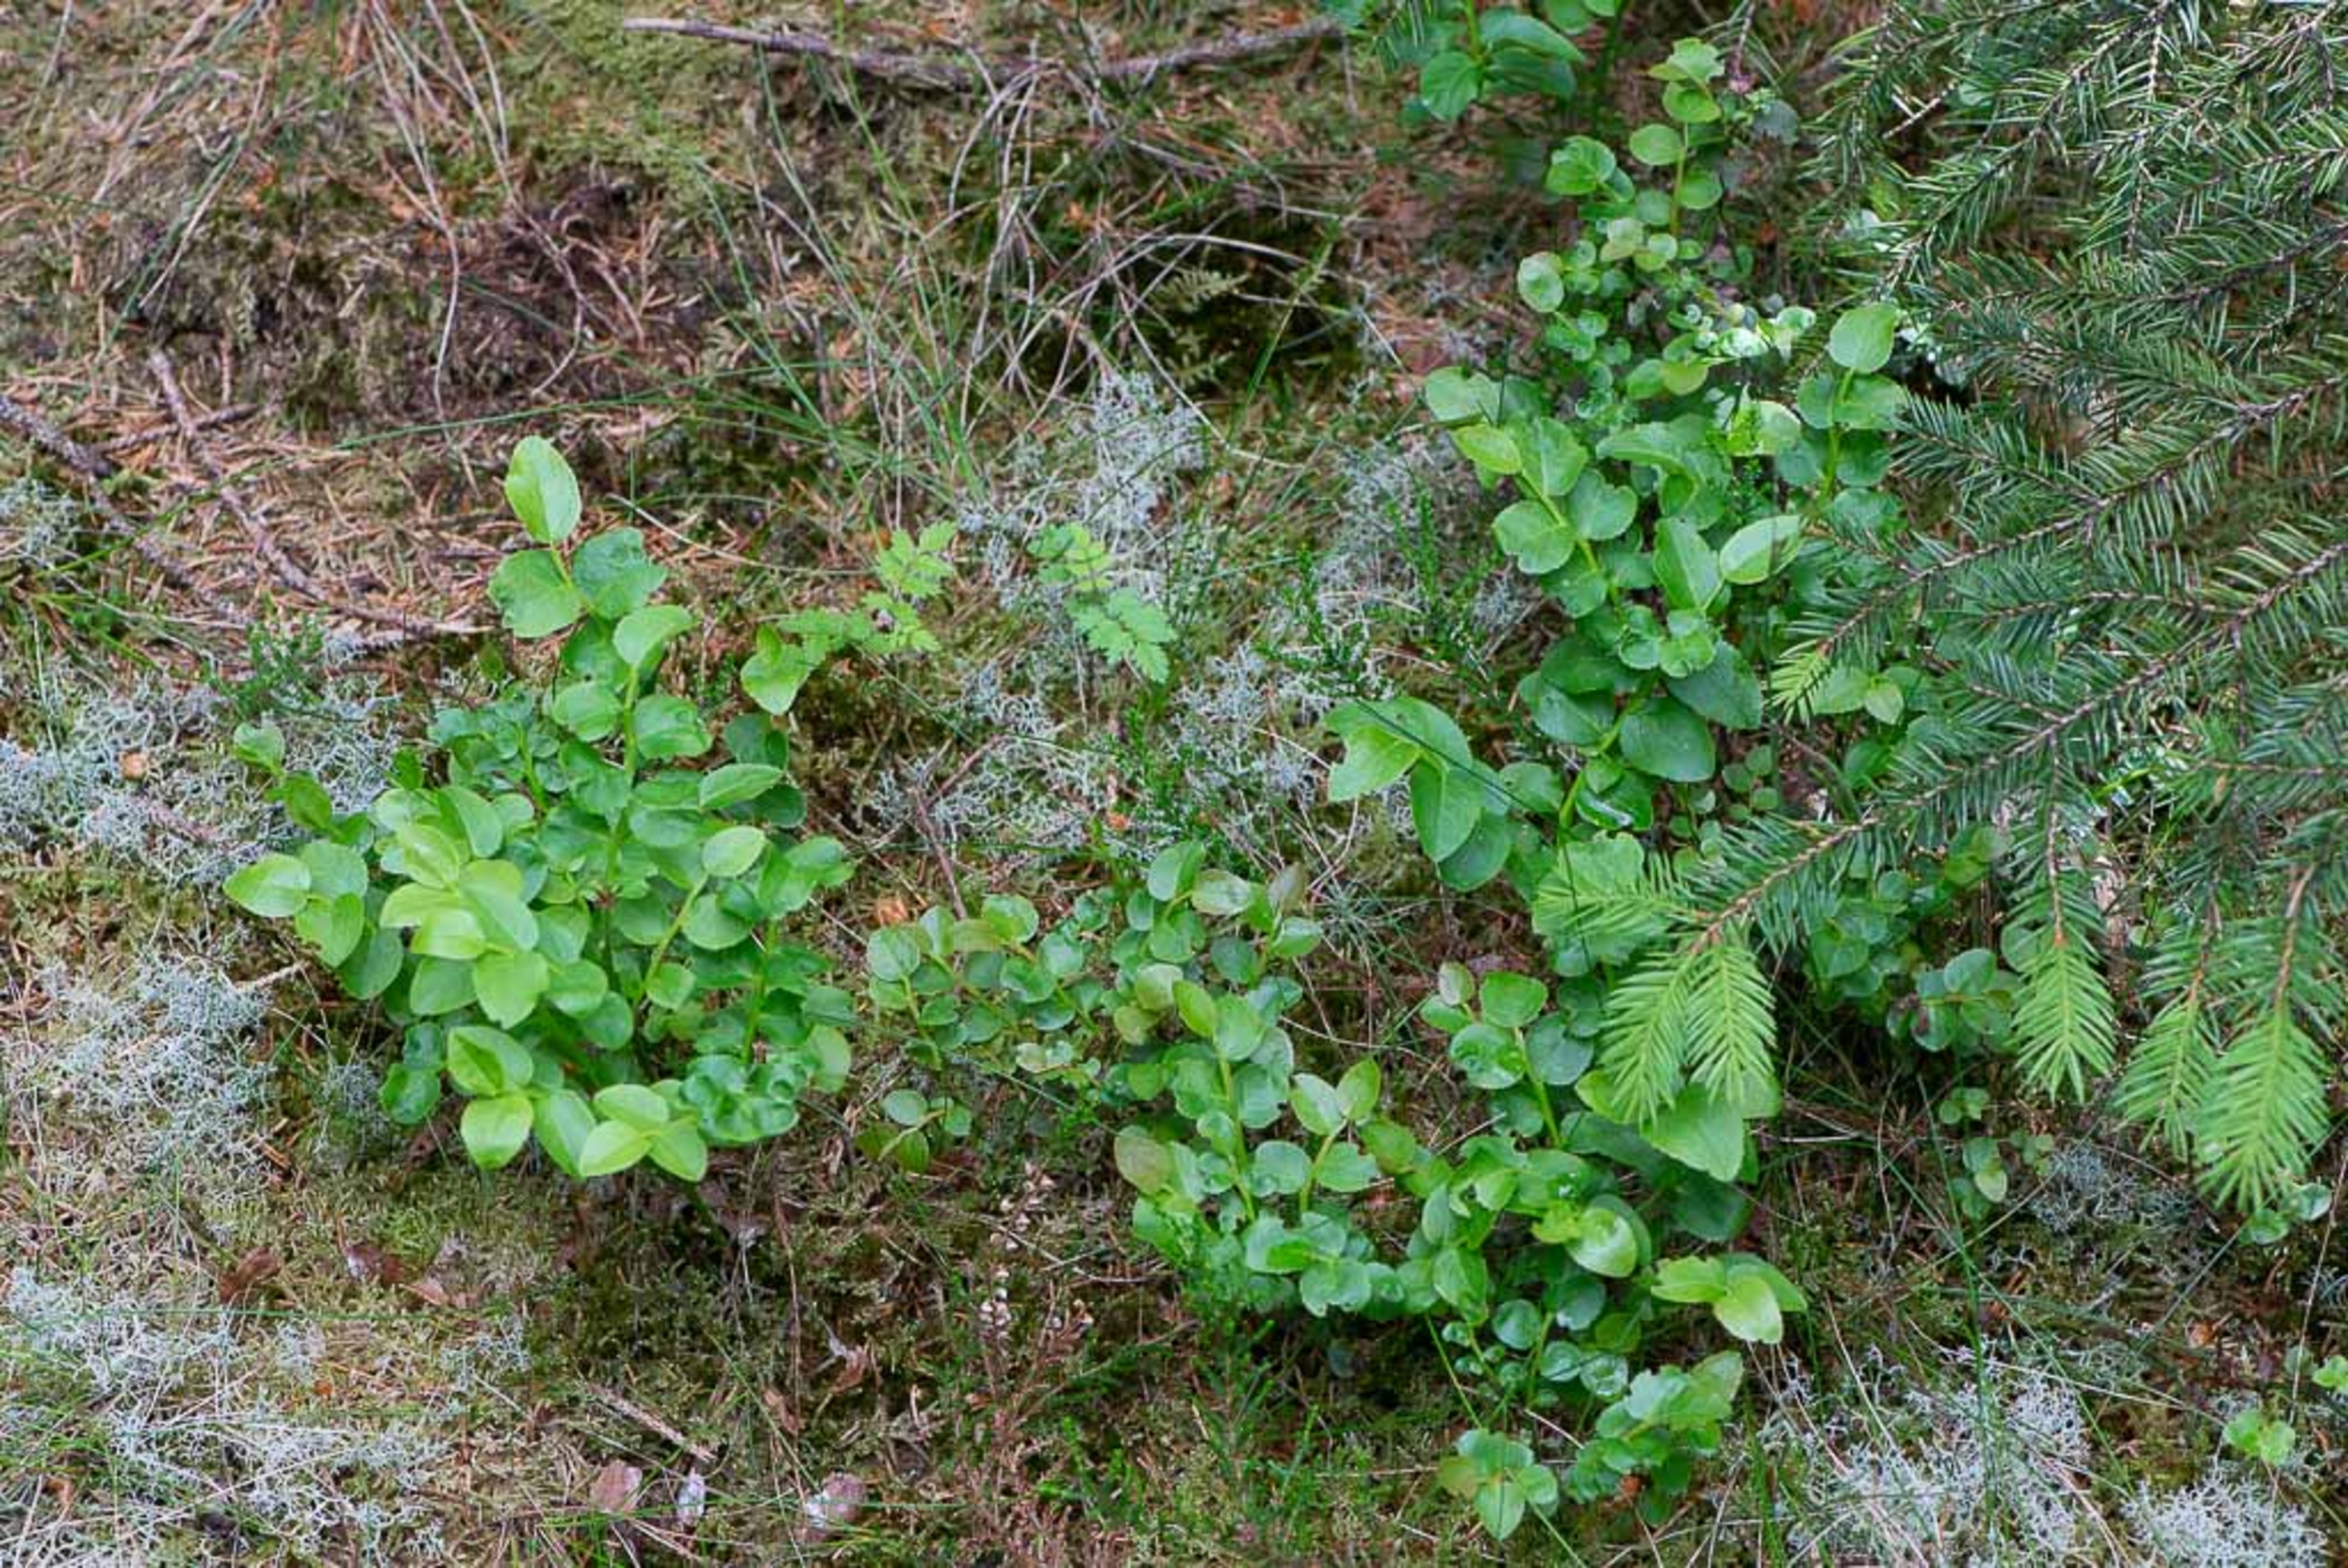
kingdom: Plantae
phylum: Tracheophyta
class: Magnoliopsida
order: Ericales
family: Ericaceae
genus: Vaccinium
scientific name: Vaccinium myrtillus
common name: Blåbær
